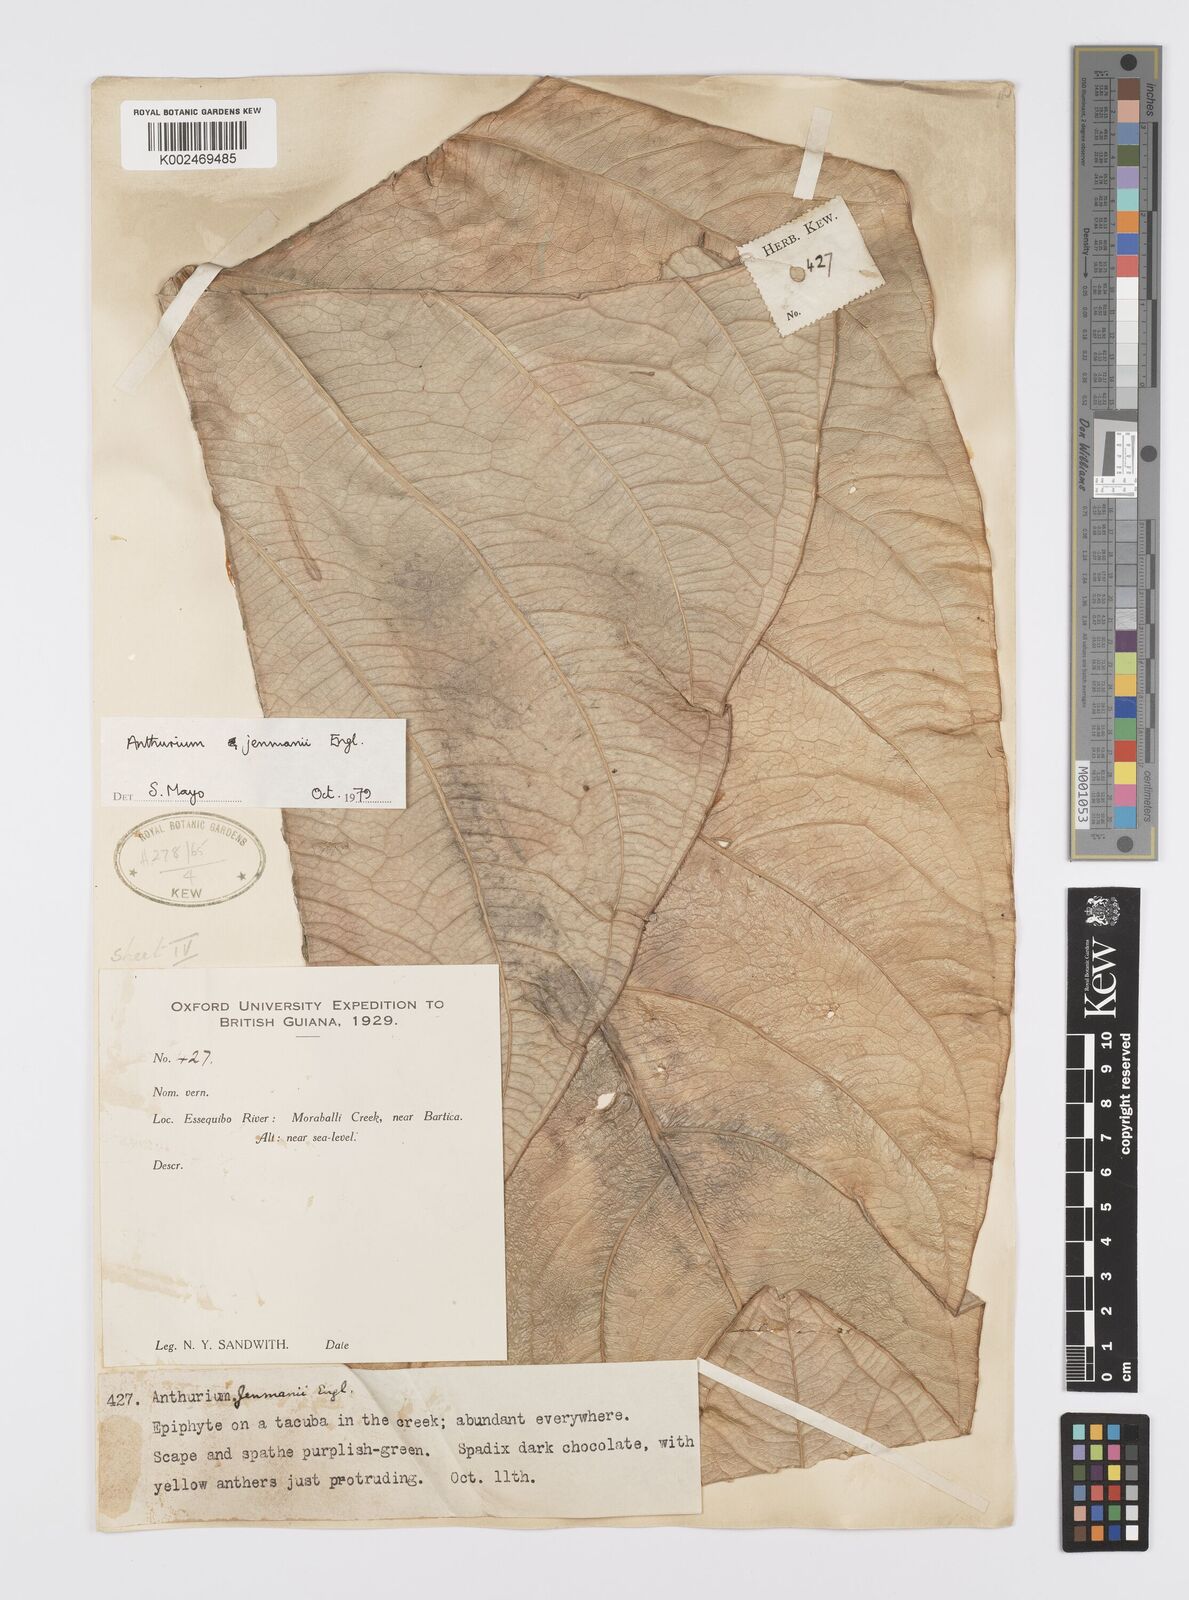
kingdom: Plantae
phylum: Tracheophyta
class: Liliopsida
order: Alismatales
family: Araceae
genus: Anthurium
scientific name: Anthurium jenmanii
